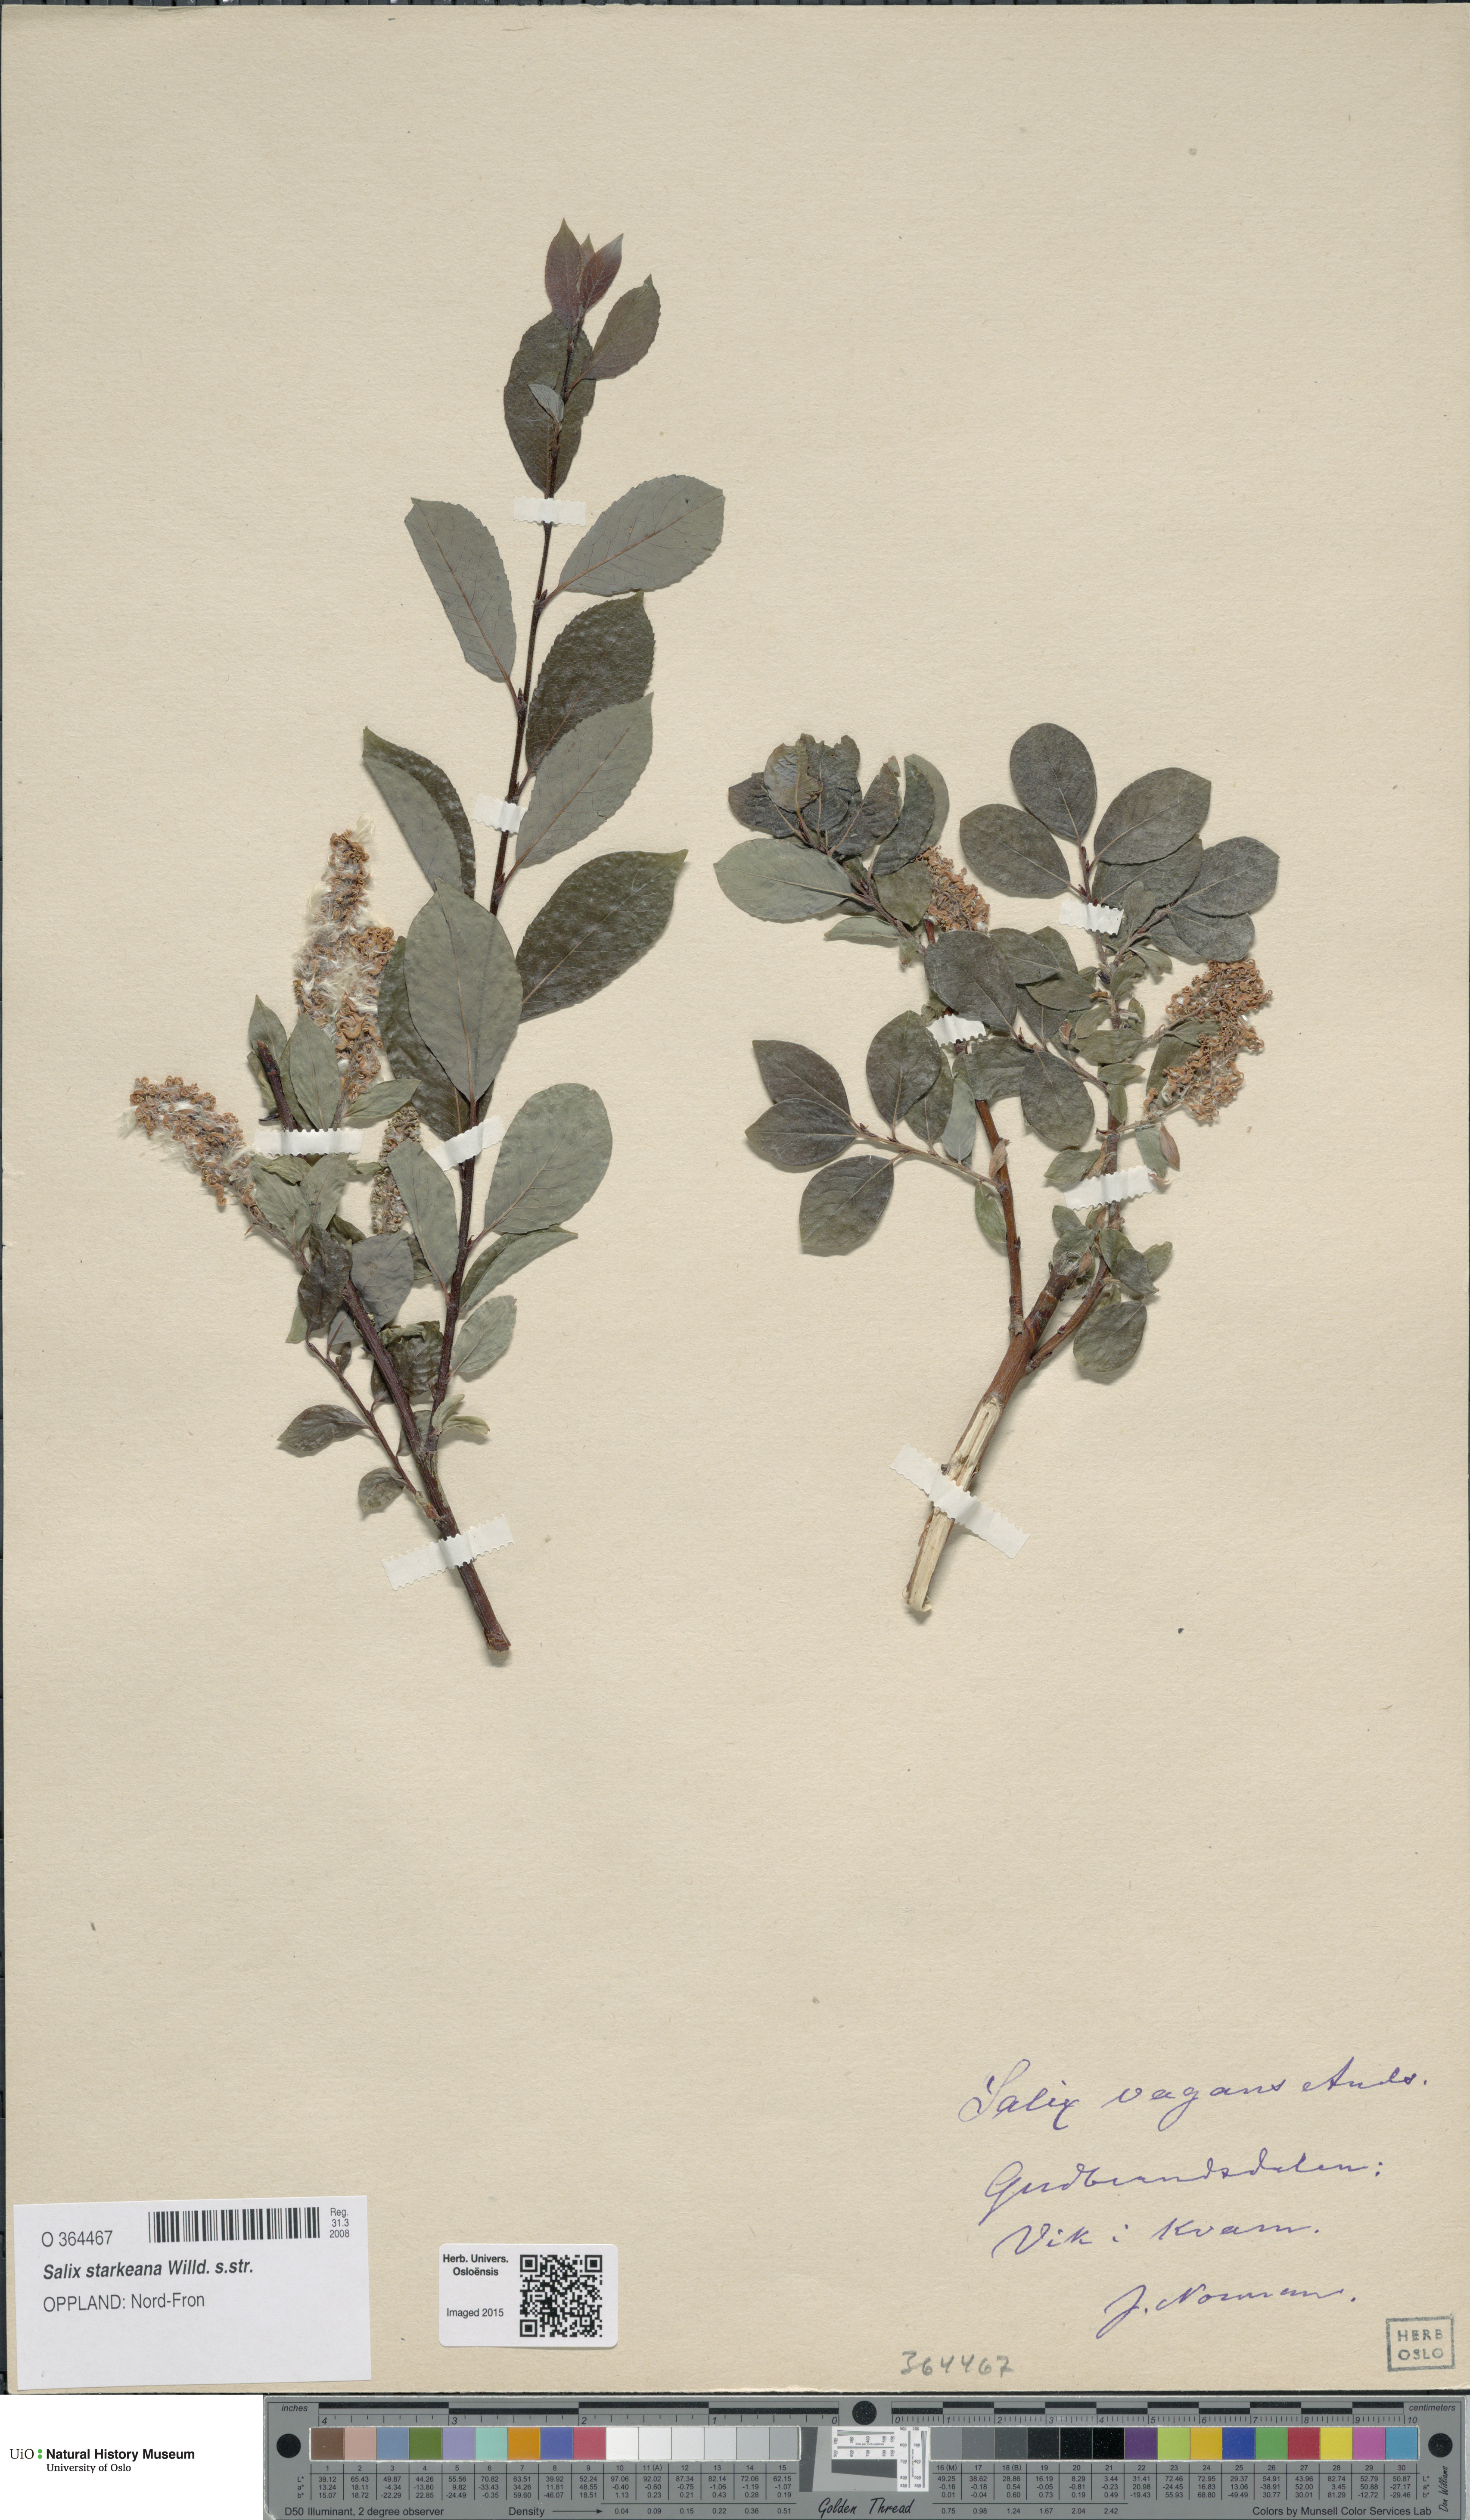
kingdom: Plantae
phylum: Tracheophyta
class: Magnoliopsida
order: Malpighiales
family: Salicaceae
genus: Salix
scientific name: Salix starkeana
